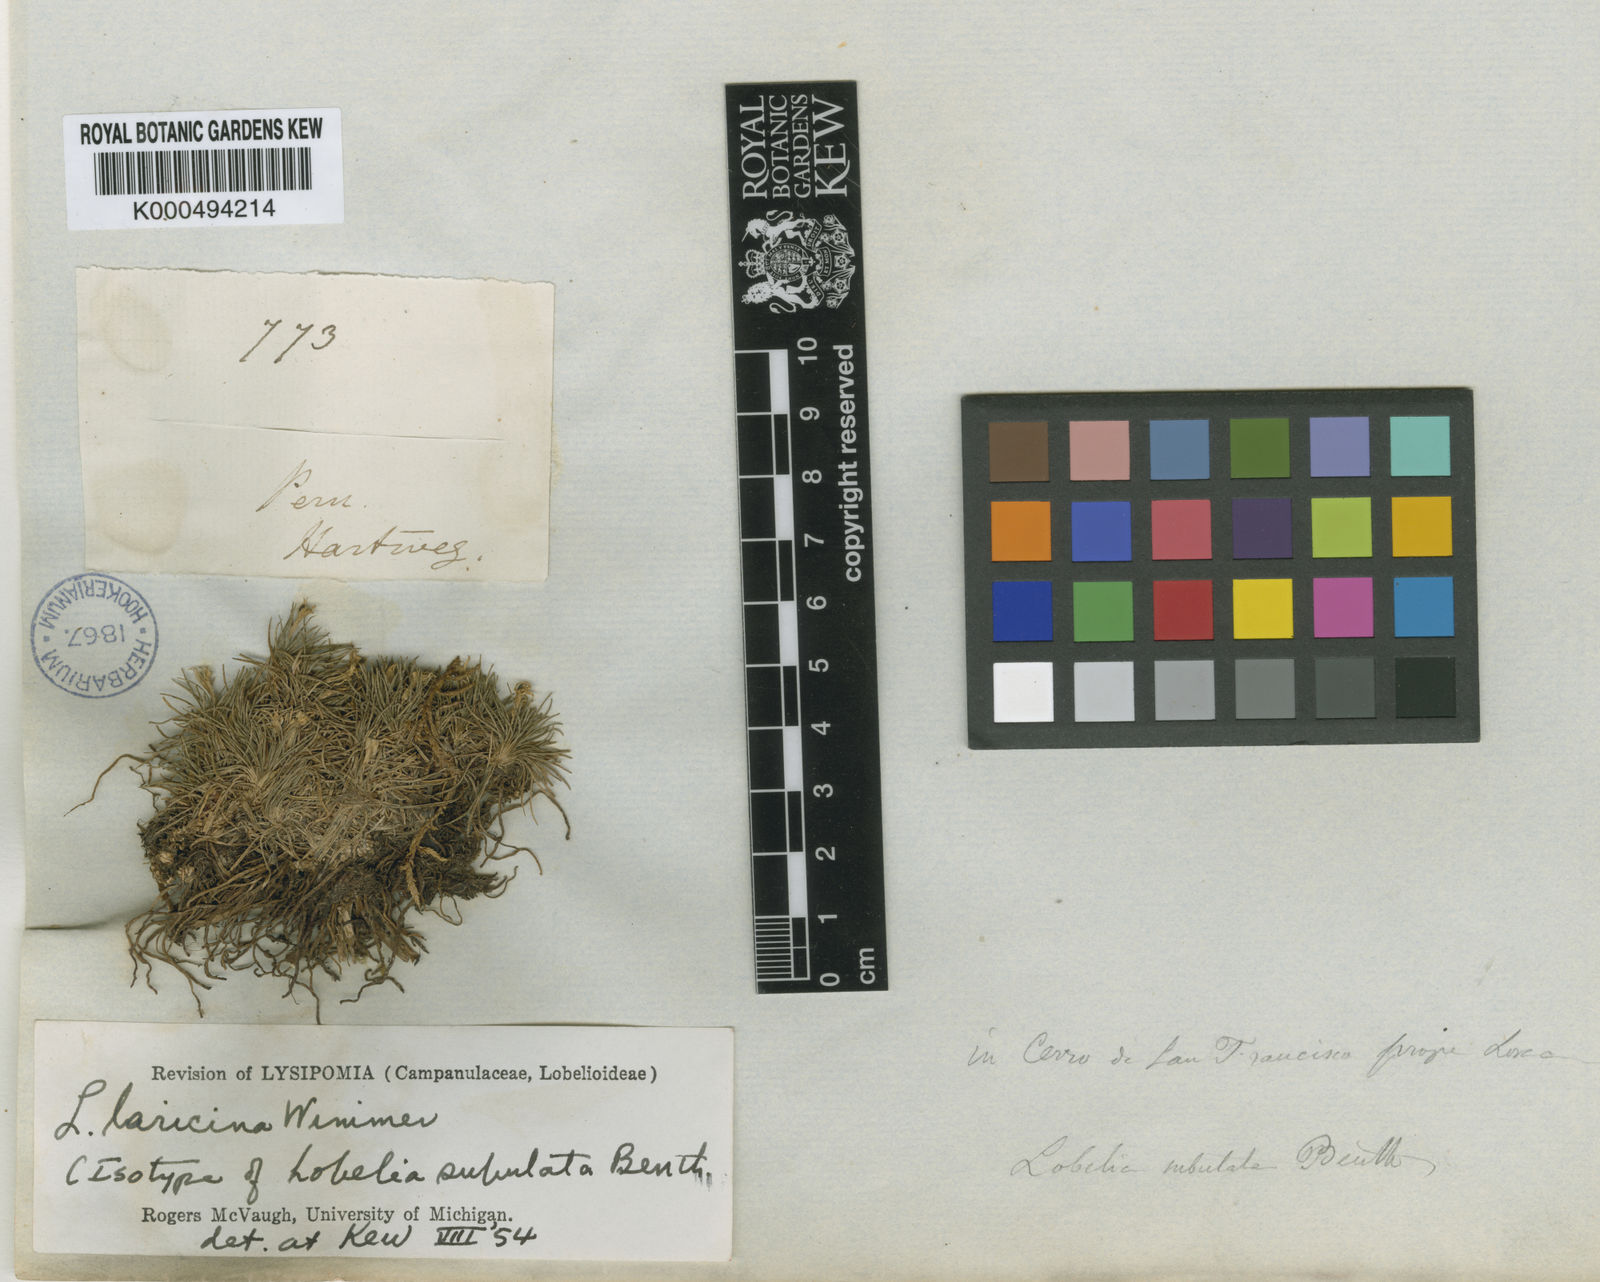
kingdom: Plantae
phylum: Tracheophyta
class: Magnoliopsida
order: Asterales
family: Campanulaceae
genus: Lysipomia
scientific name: Lysipomia laricina
